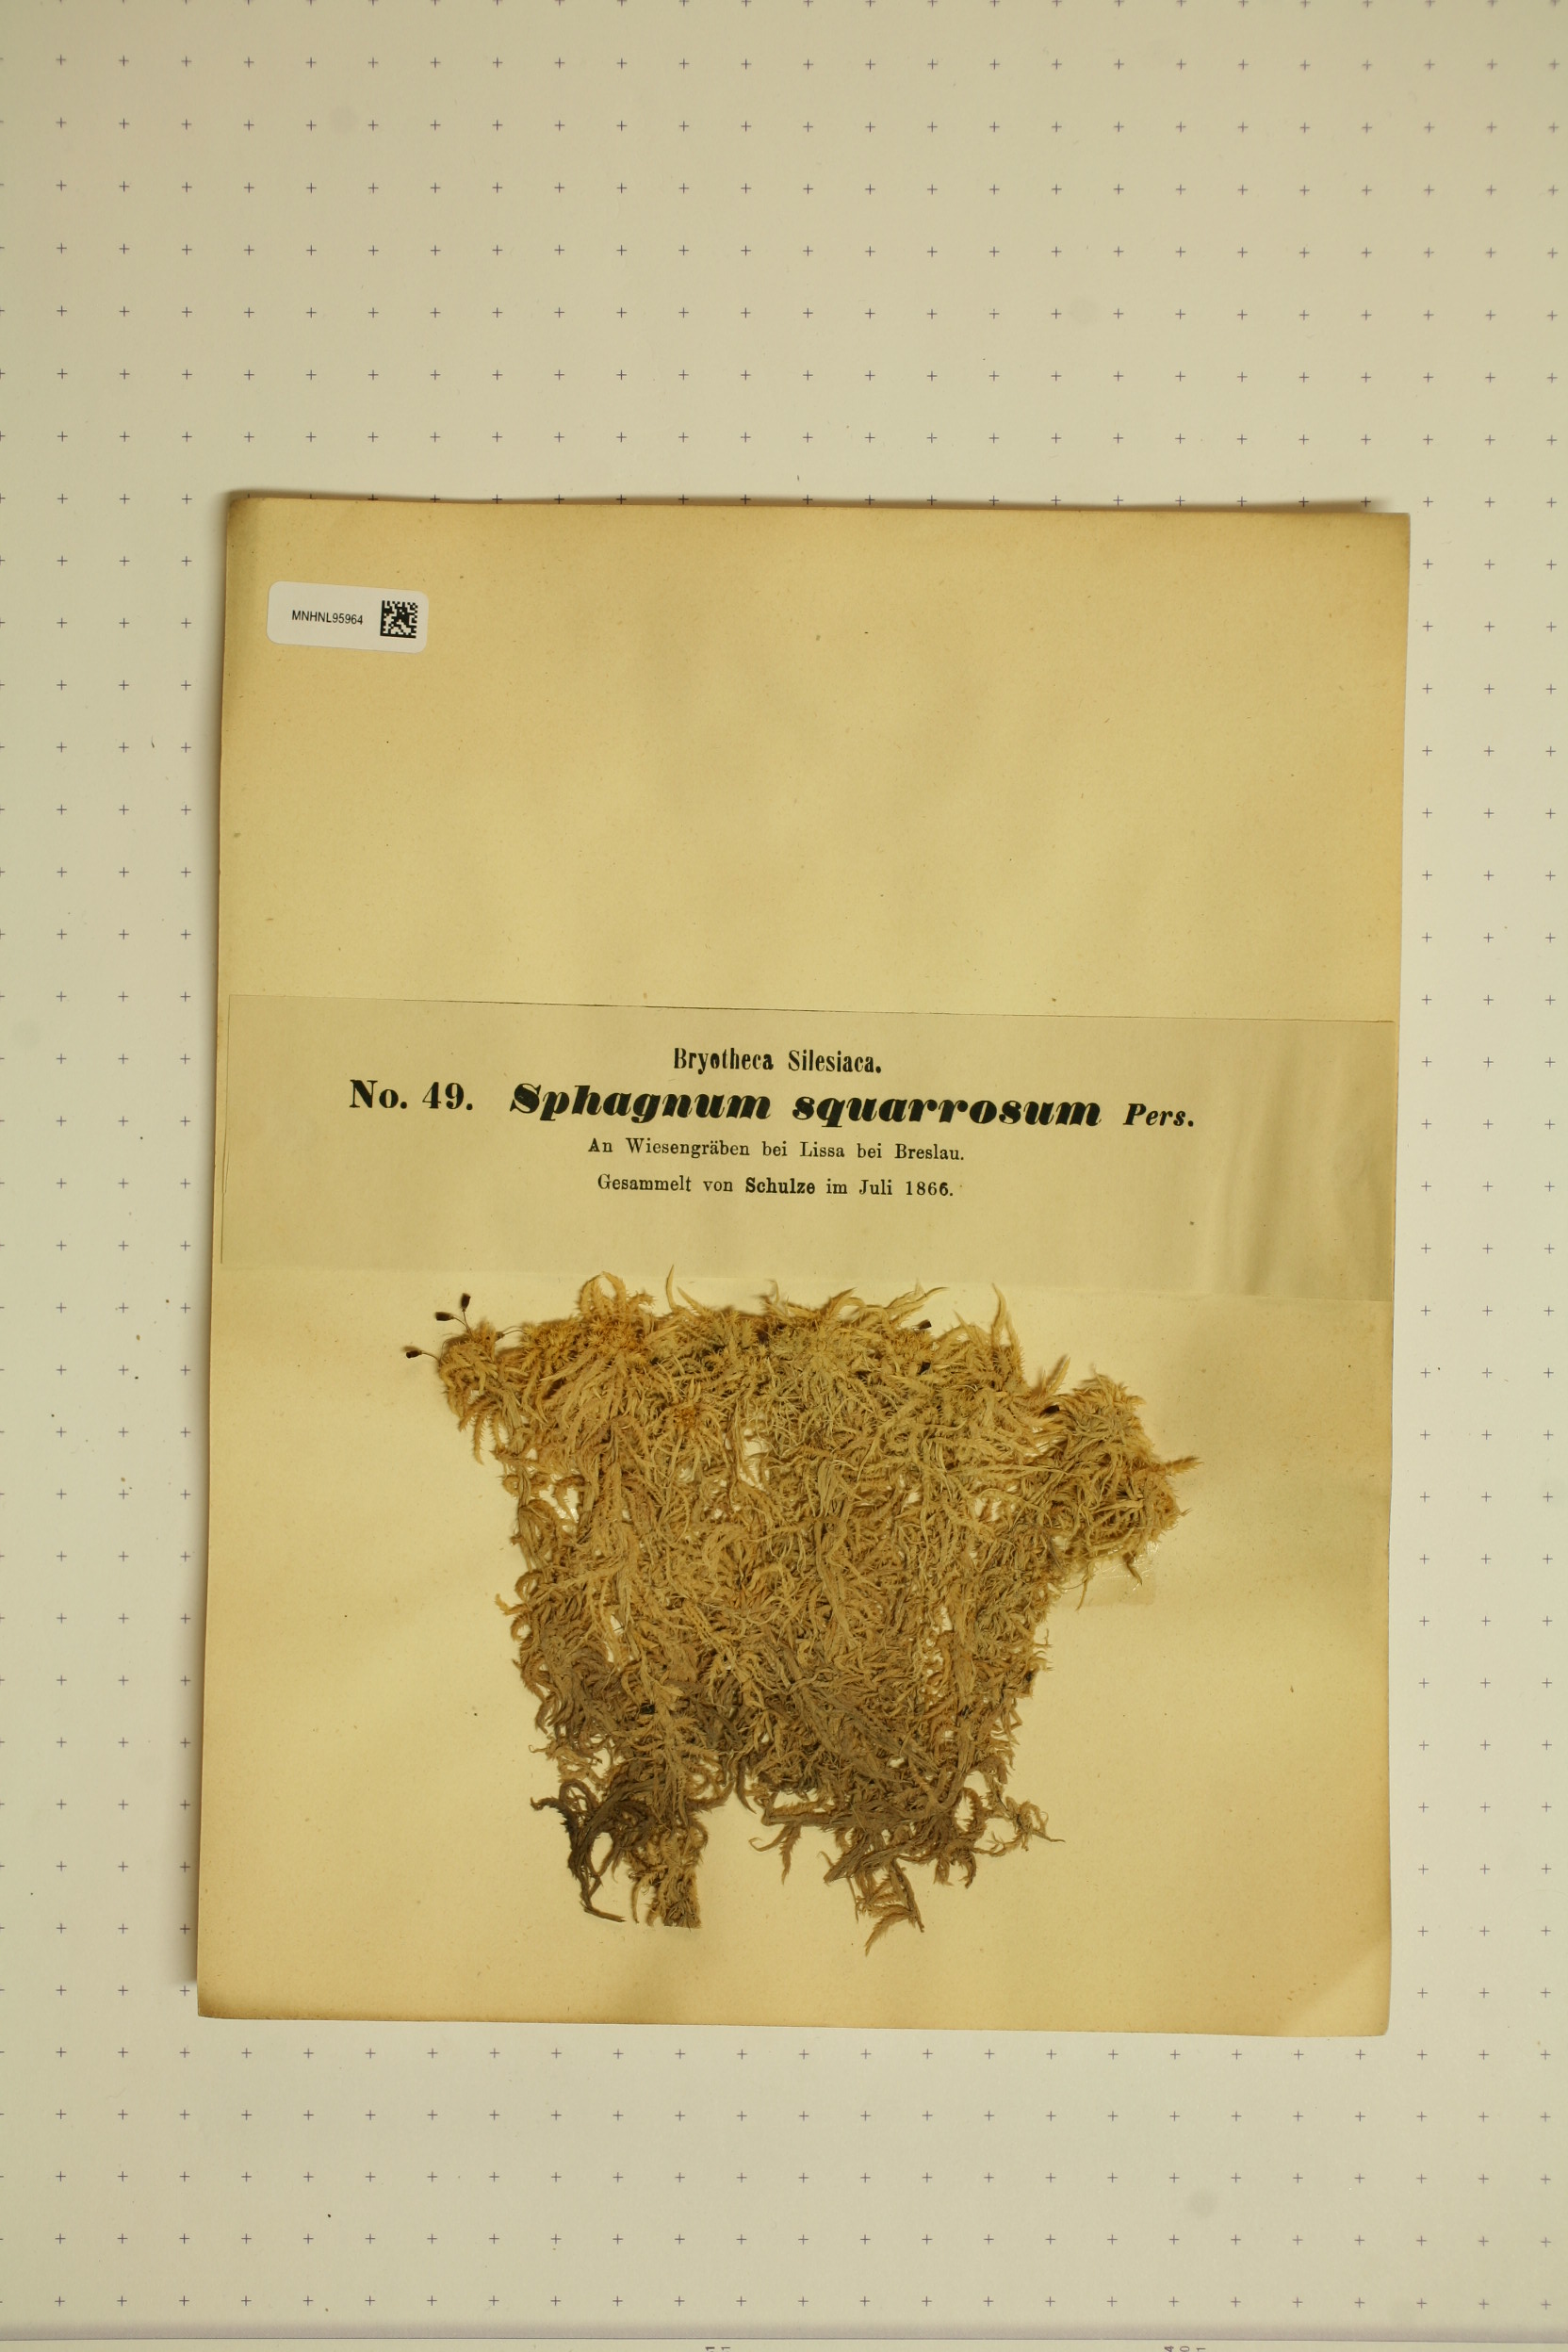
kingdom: Plantae
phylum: Bryophyta
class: Sphagnopsida
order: Sphagnales
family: Sphagnaceae
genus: Sphagnum
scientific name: Sphagnum squarrosum
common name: Shaggy peat moss
